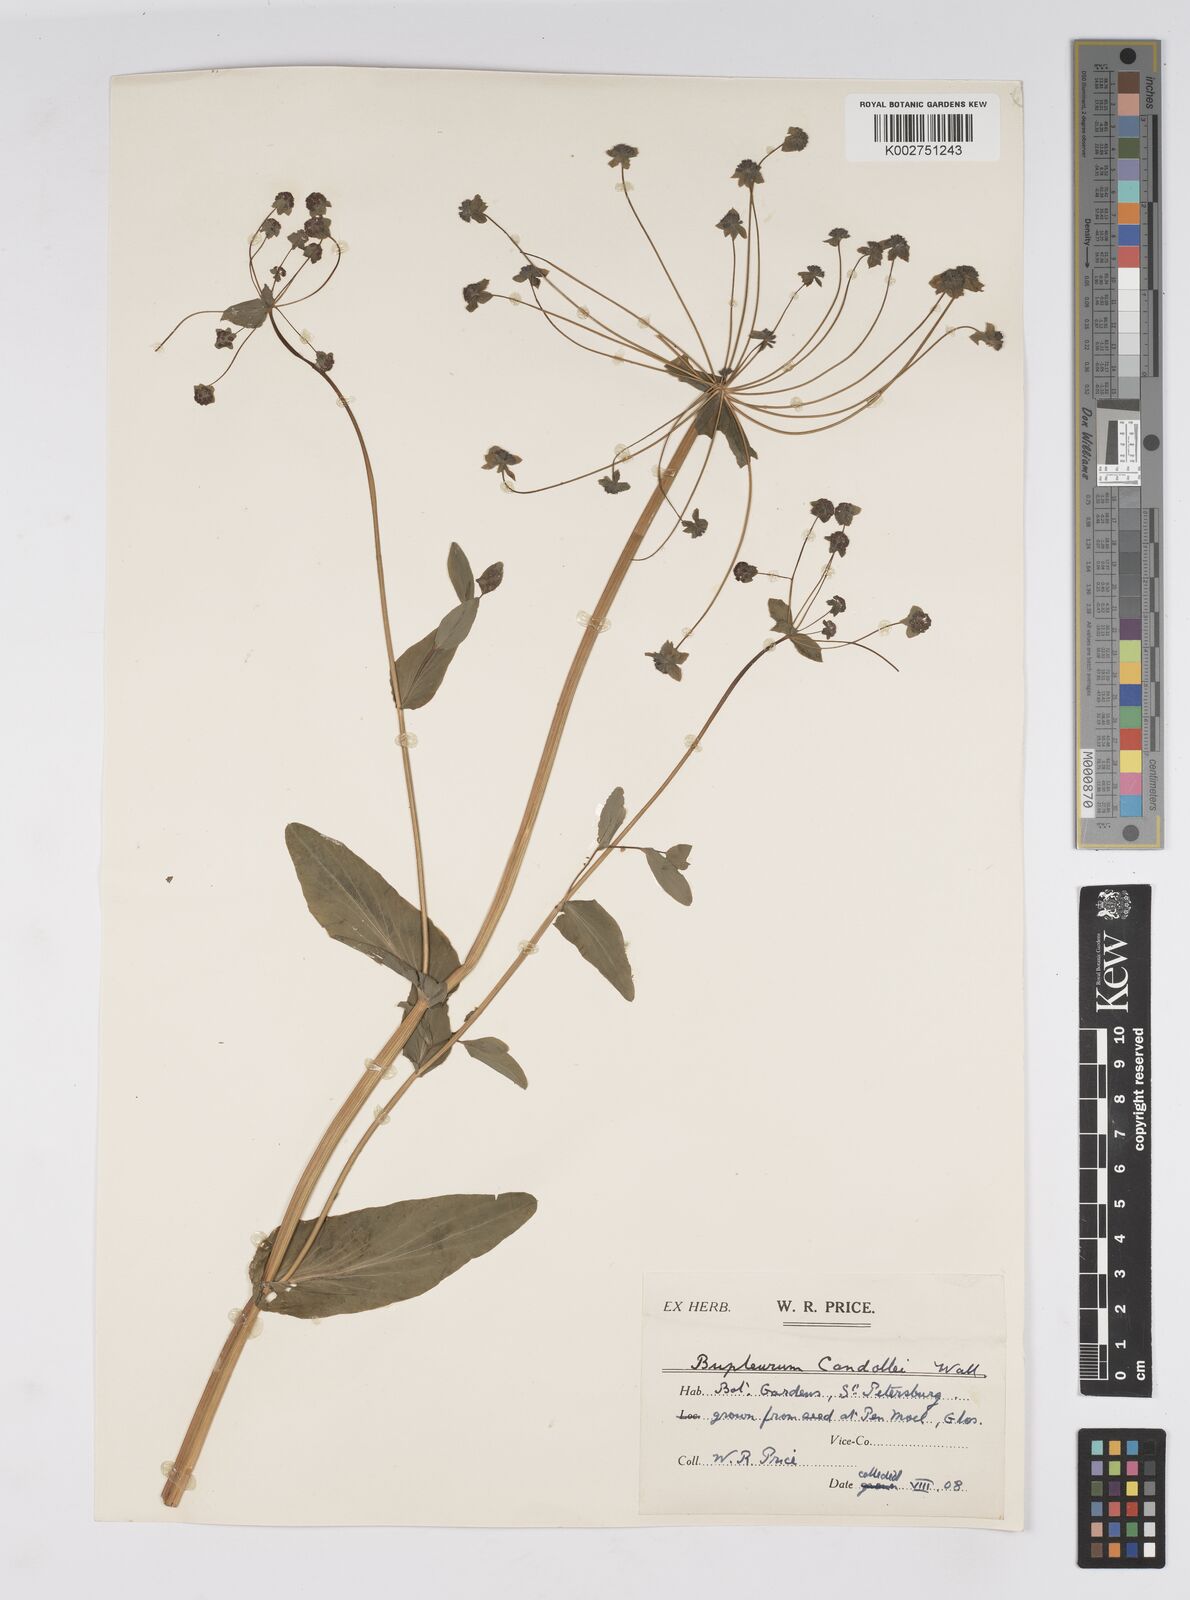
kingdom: Plantae
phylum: Tracheophyta
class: Magnoliopsida
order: Apiales
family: Apiaceae
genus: Bupleurum
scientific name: Bupleurum candollei
